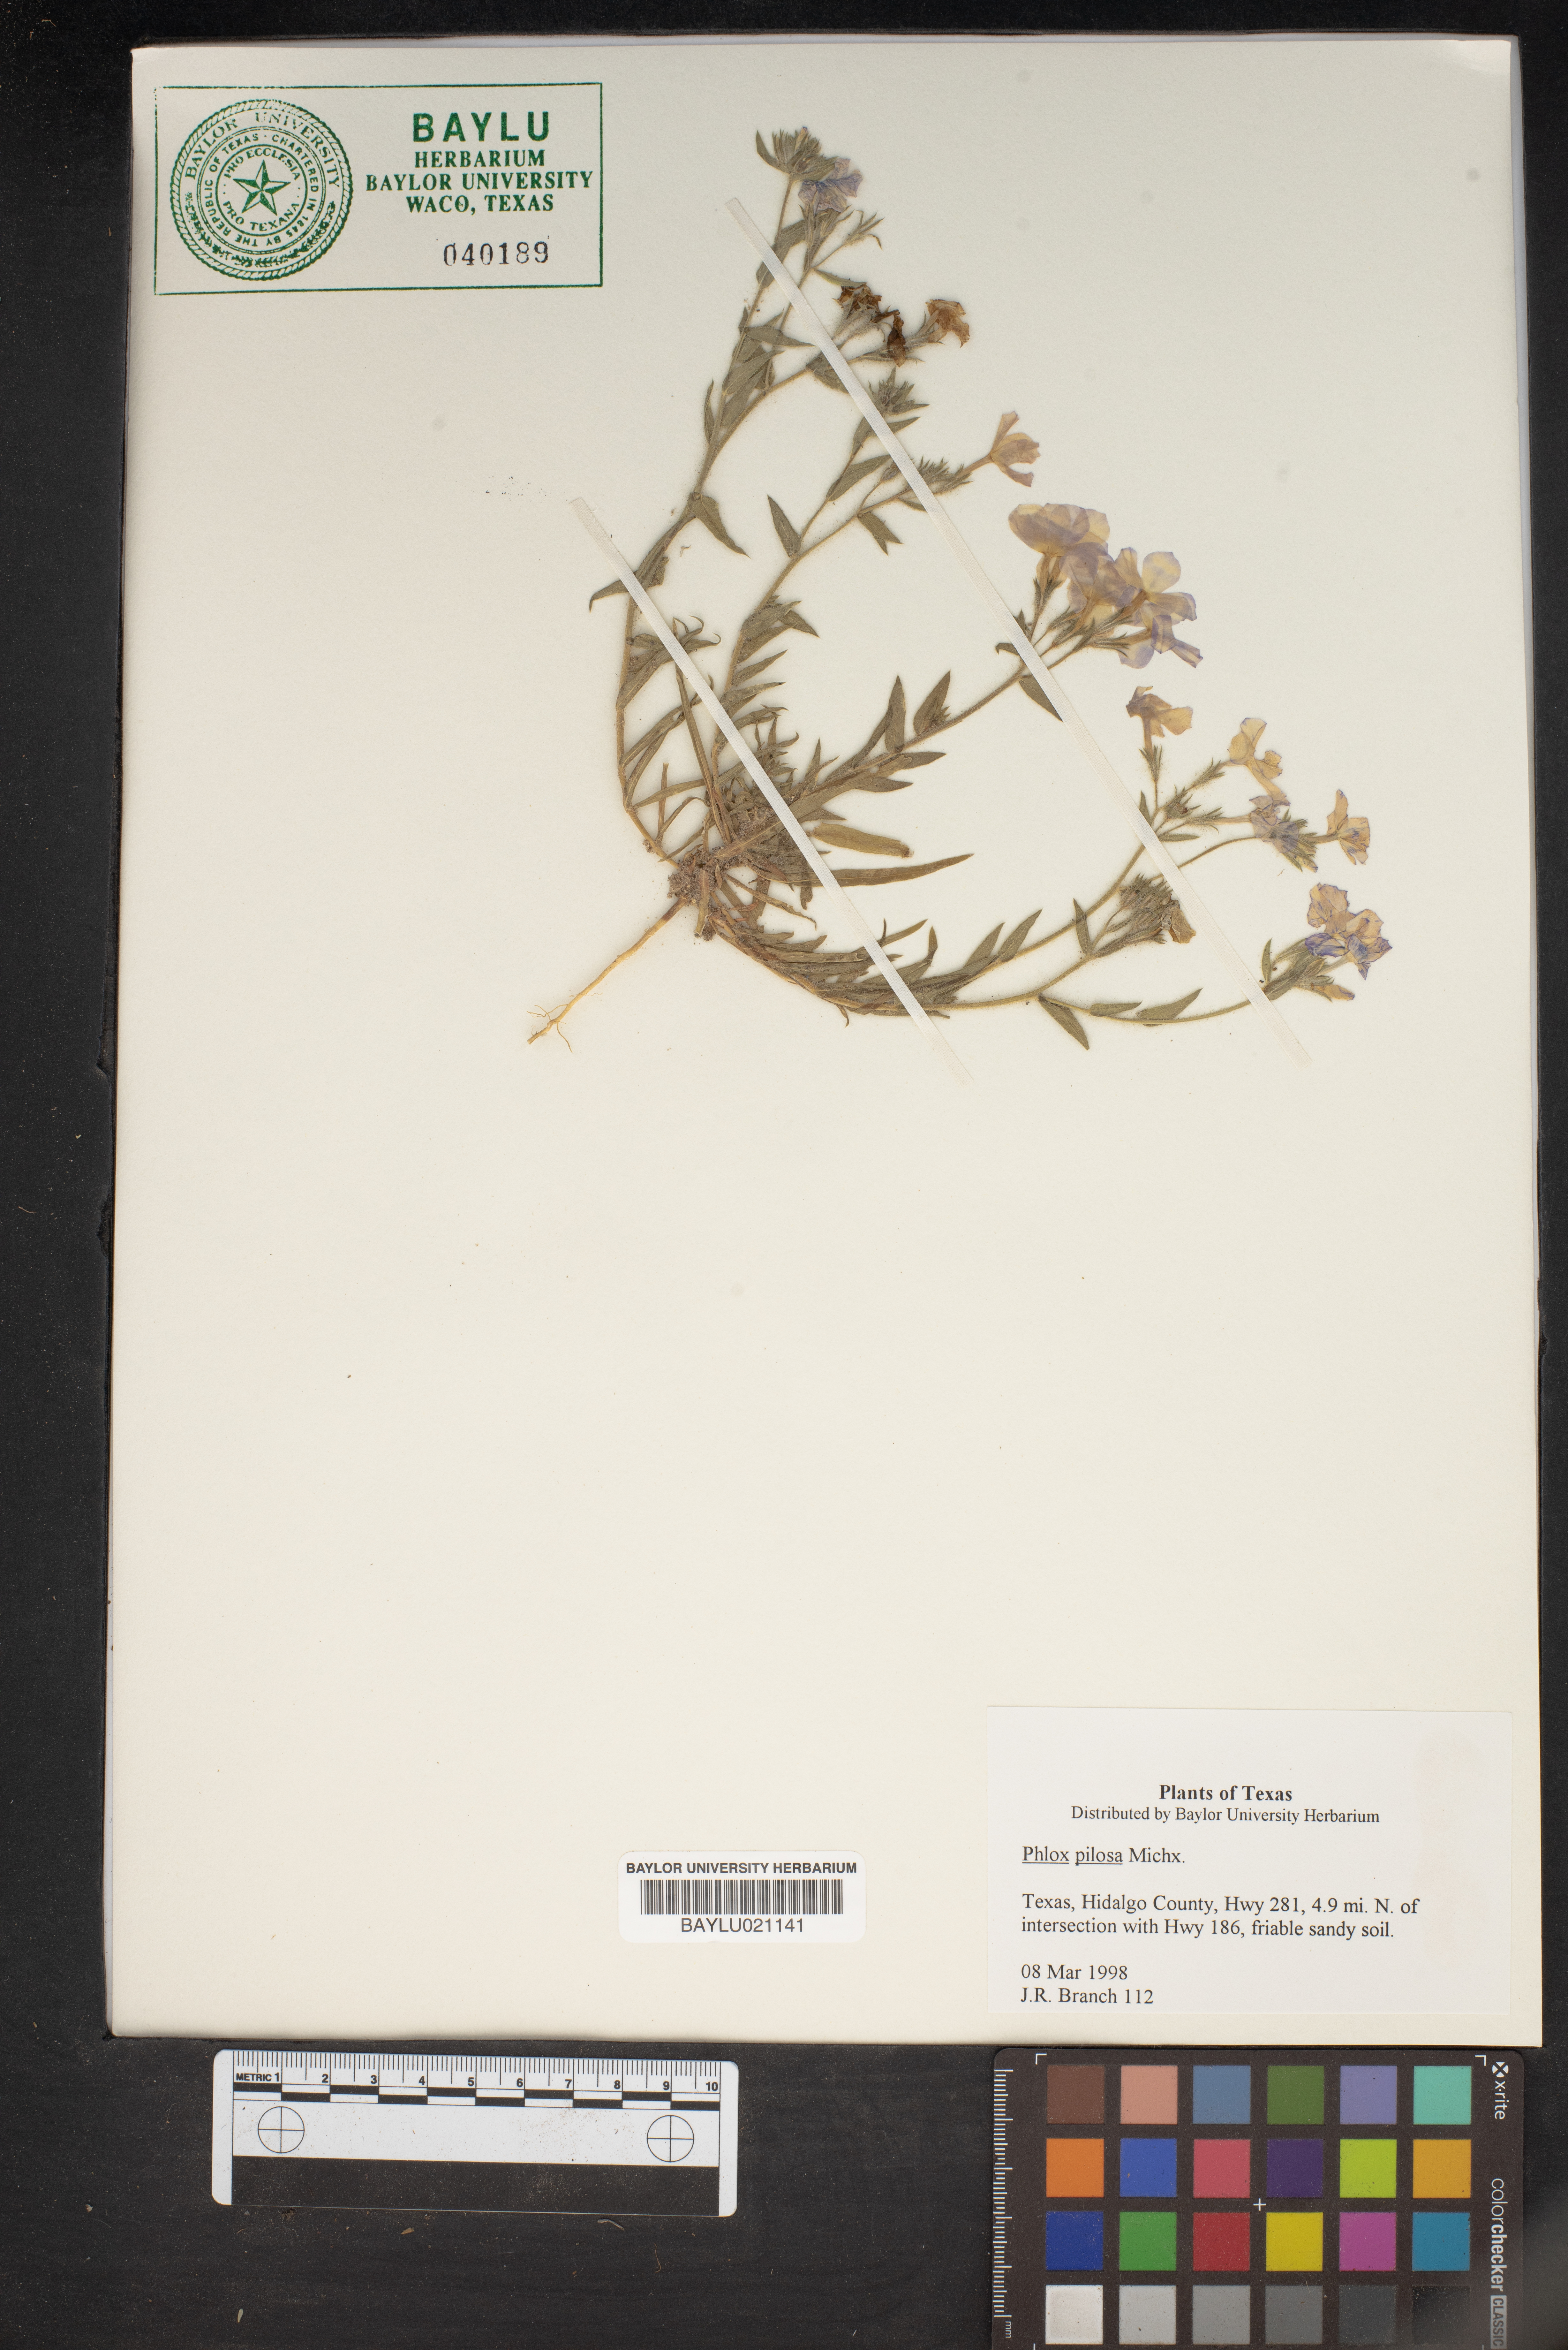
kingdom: Plantae
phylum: Tracheophyta
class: Magnoliopsida
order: Ericales
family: Polemoniaceae
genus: Phlox
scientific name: Phlox pilosa
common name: Prairie phlox
